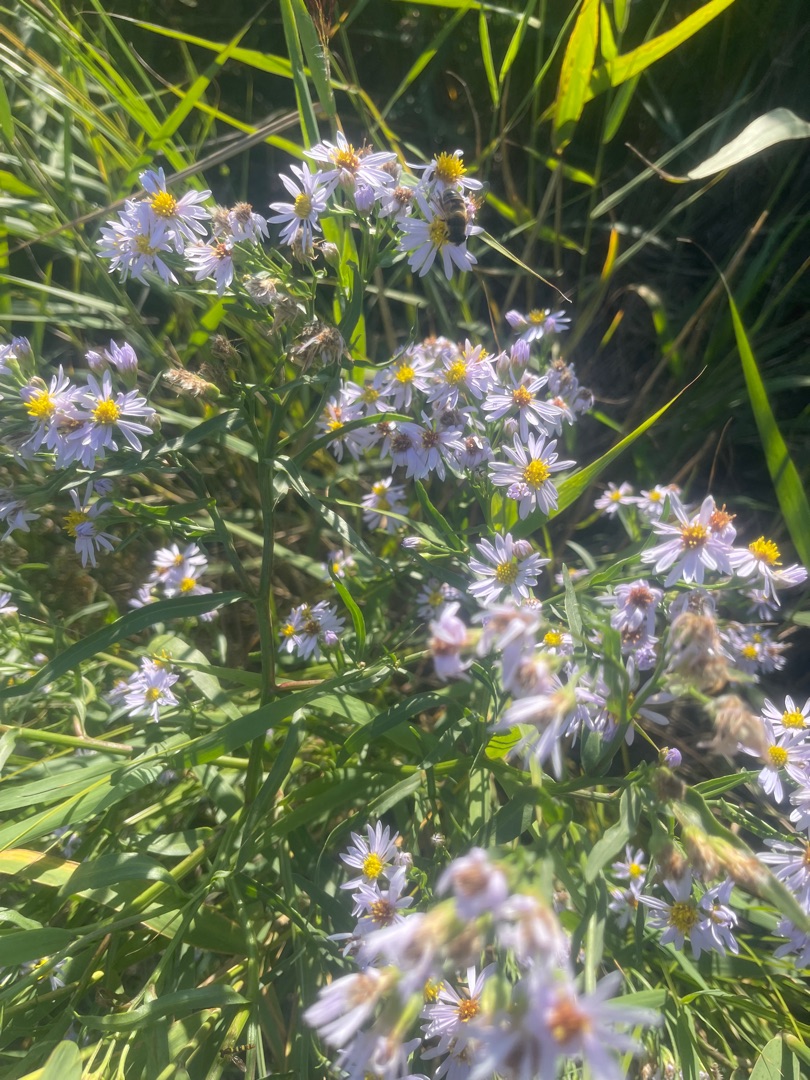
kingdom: Plantae
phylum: Tracheophyta
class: Magnoliopsida
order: Asterales
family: Asteraceae
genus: Tripolium
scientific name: Tripolium pannonicum
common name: Strandasters
